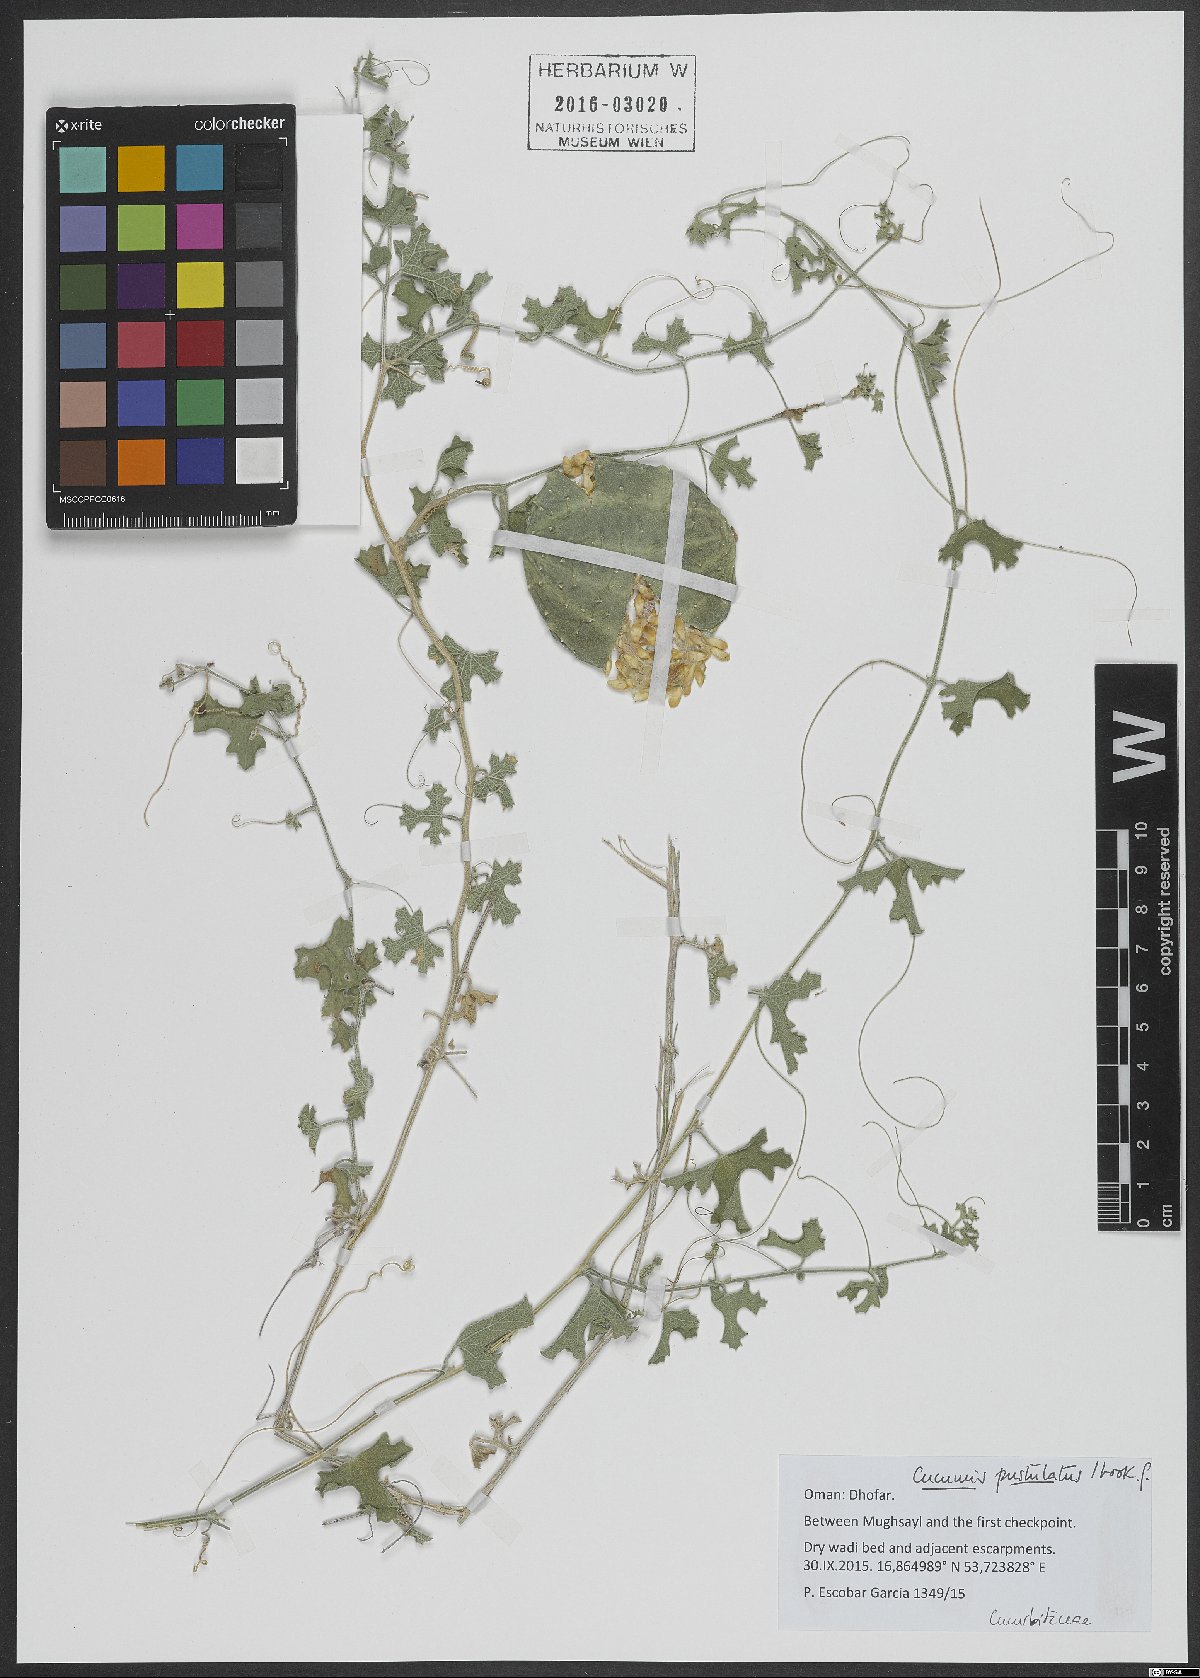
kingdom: Plantae
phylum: Tracheophyta
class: Magnoliopsida
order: Cucurbitales
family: Cucurbitaceae
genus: Cucumis
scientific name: Cucumis pustulatus
